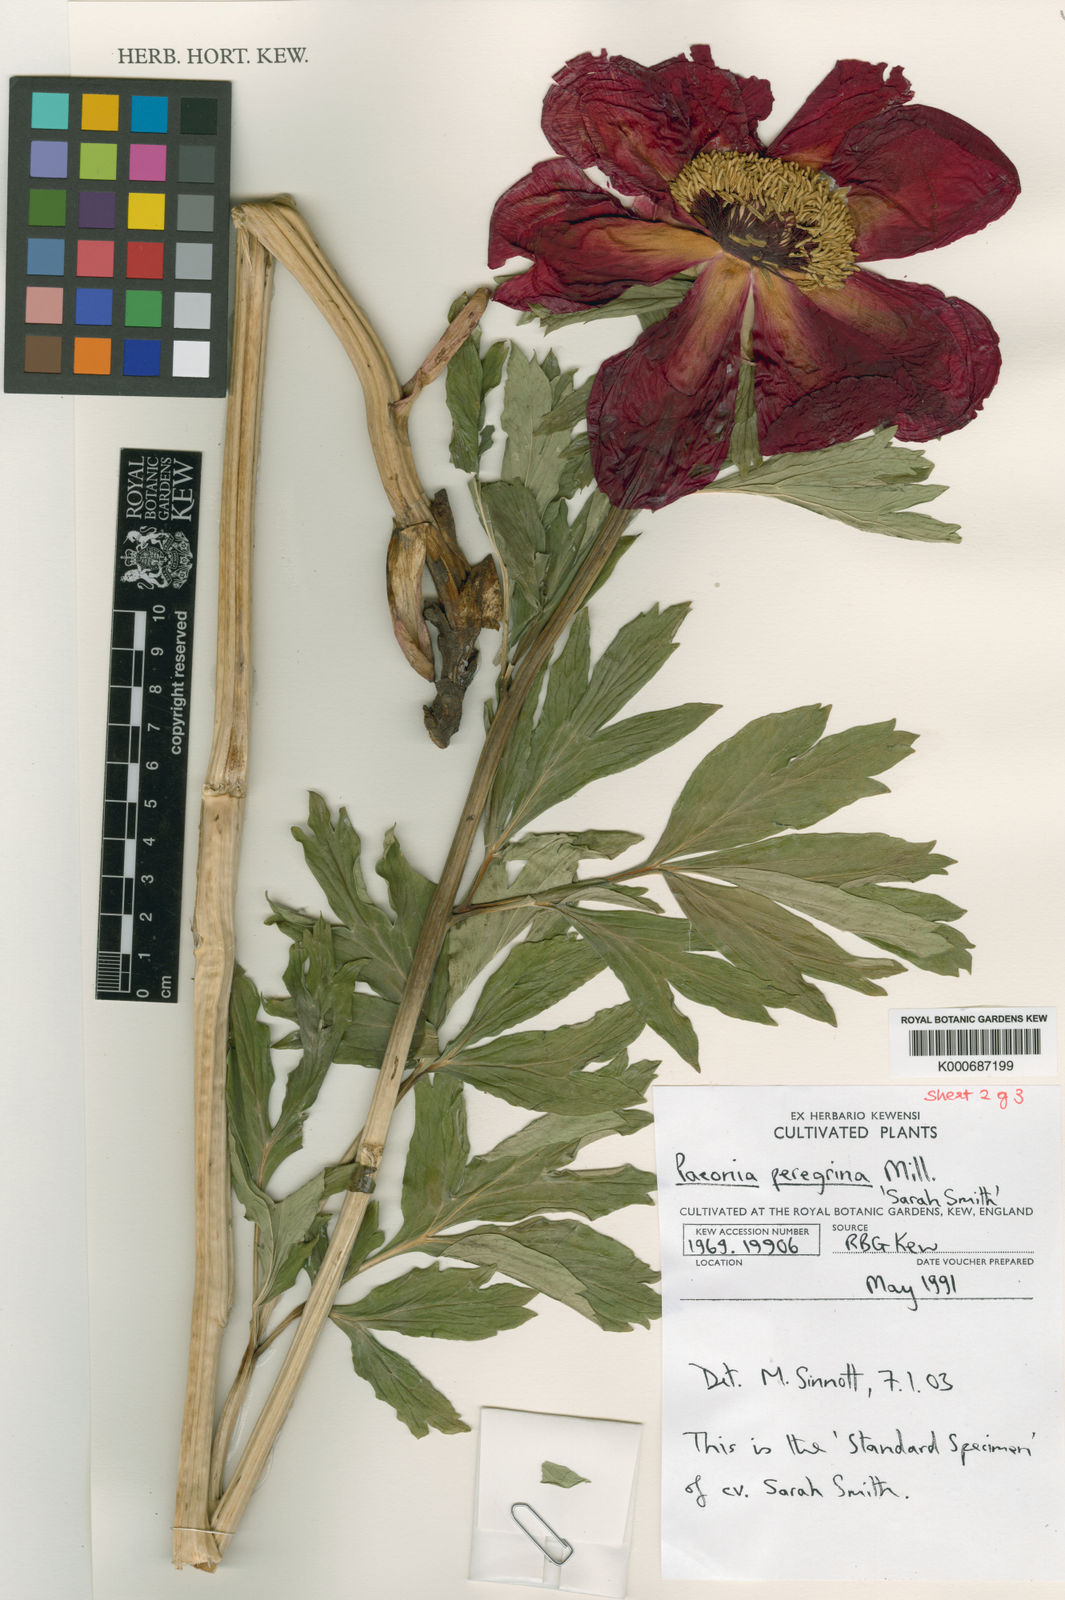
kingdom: Plantae
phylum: Tracheophyta
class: Magnoliopsida
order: Saxifragales
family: Paeoniaceae
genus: Paeonia
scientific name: Paeonia peregrina
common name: Scarlet peony
